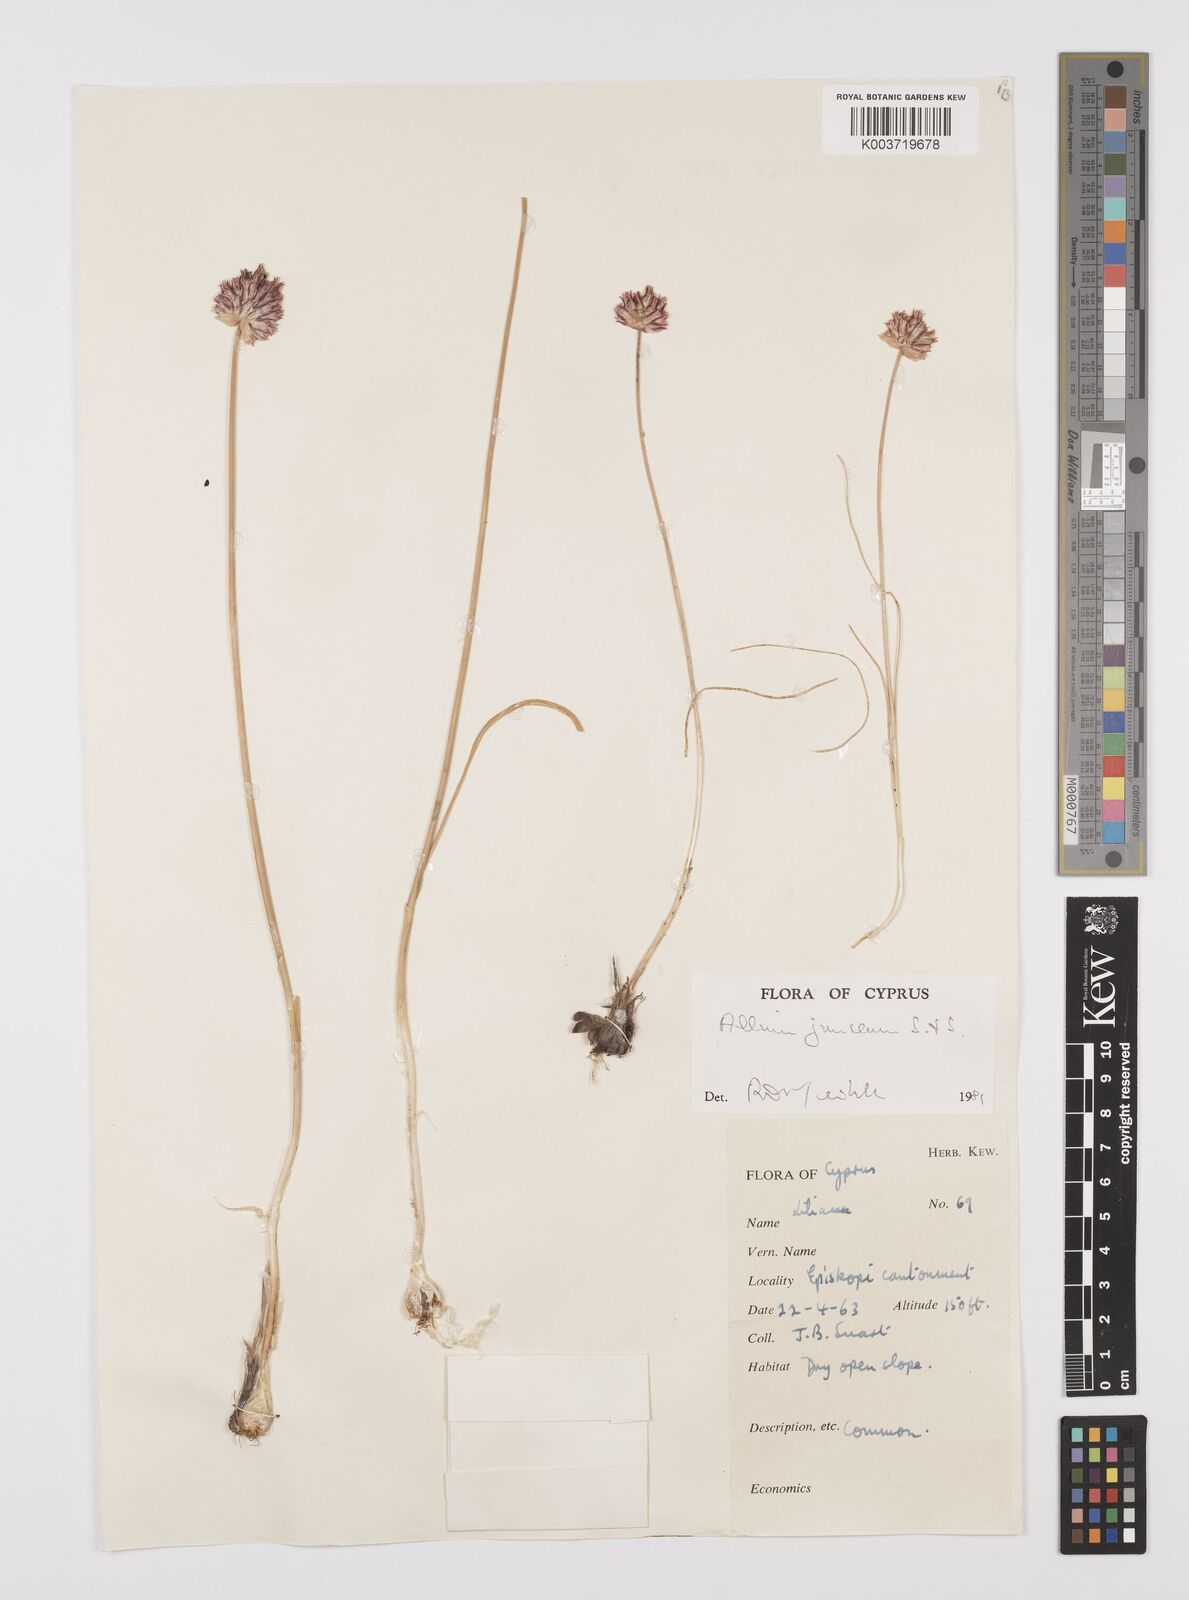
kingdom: Plantae
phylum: Tracheophyta
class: Liliopsida
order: Asparagales
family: Amaryllidaceae
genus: Allium
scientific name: Allium junceum
